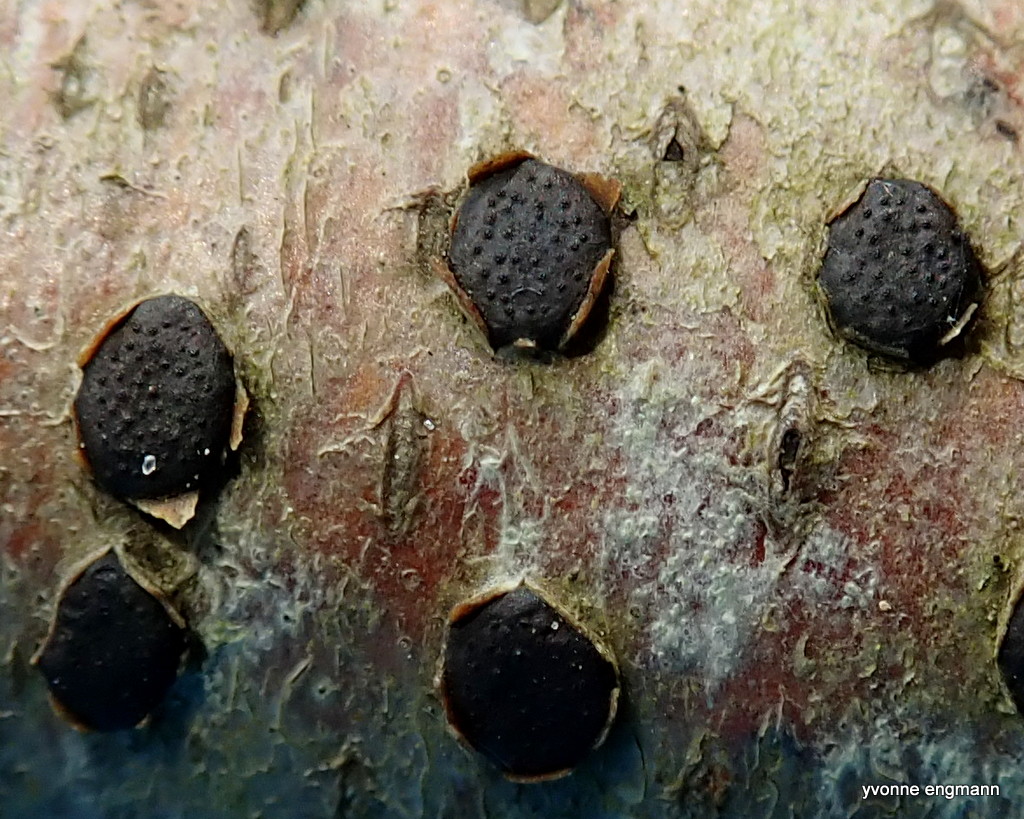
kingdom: Fungi
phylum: Ascomycota
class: Sordariomycetes
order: Xylariales
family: Diatrypaceae
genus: Diatrype
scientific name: Diatrype disciformis
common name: kant-kulskorpe
